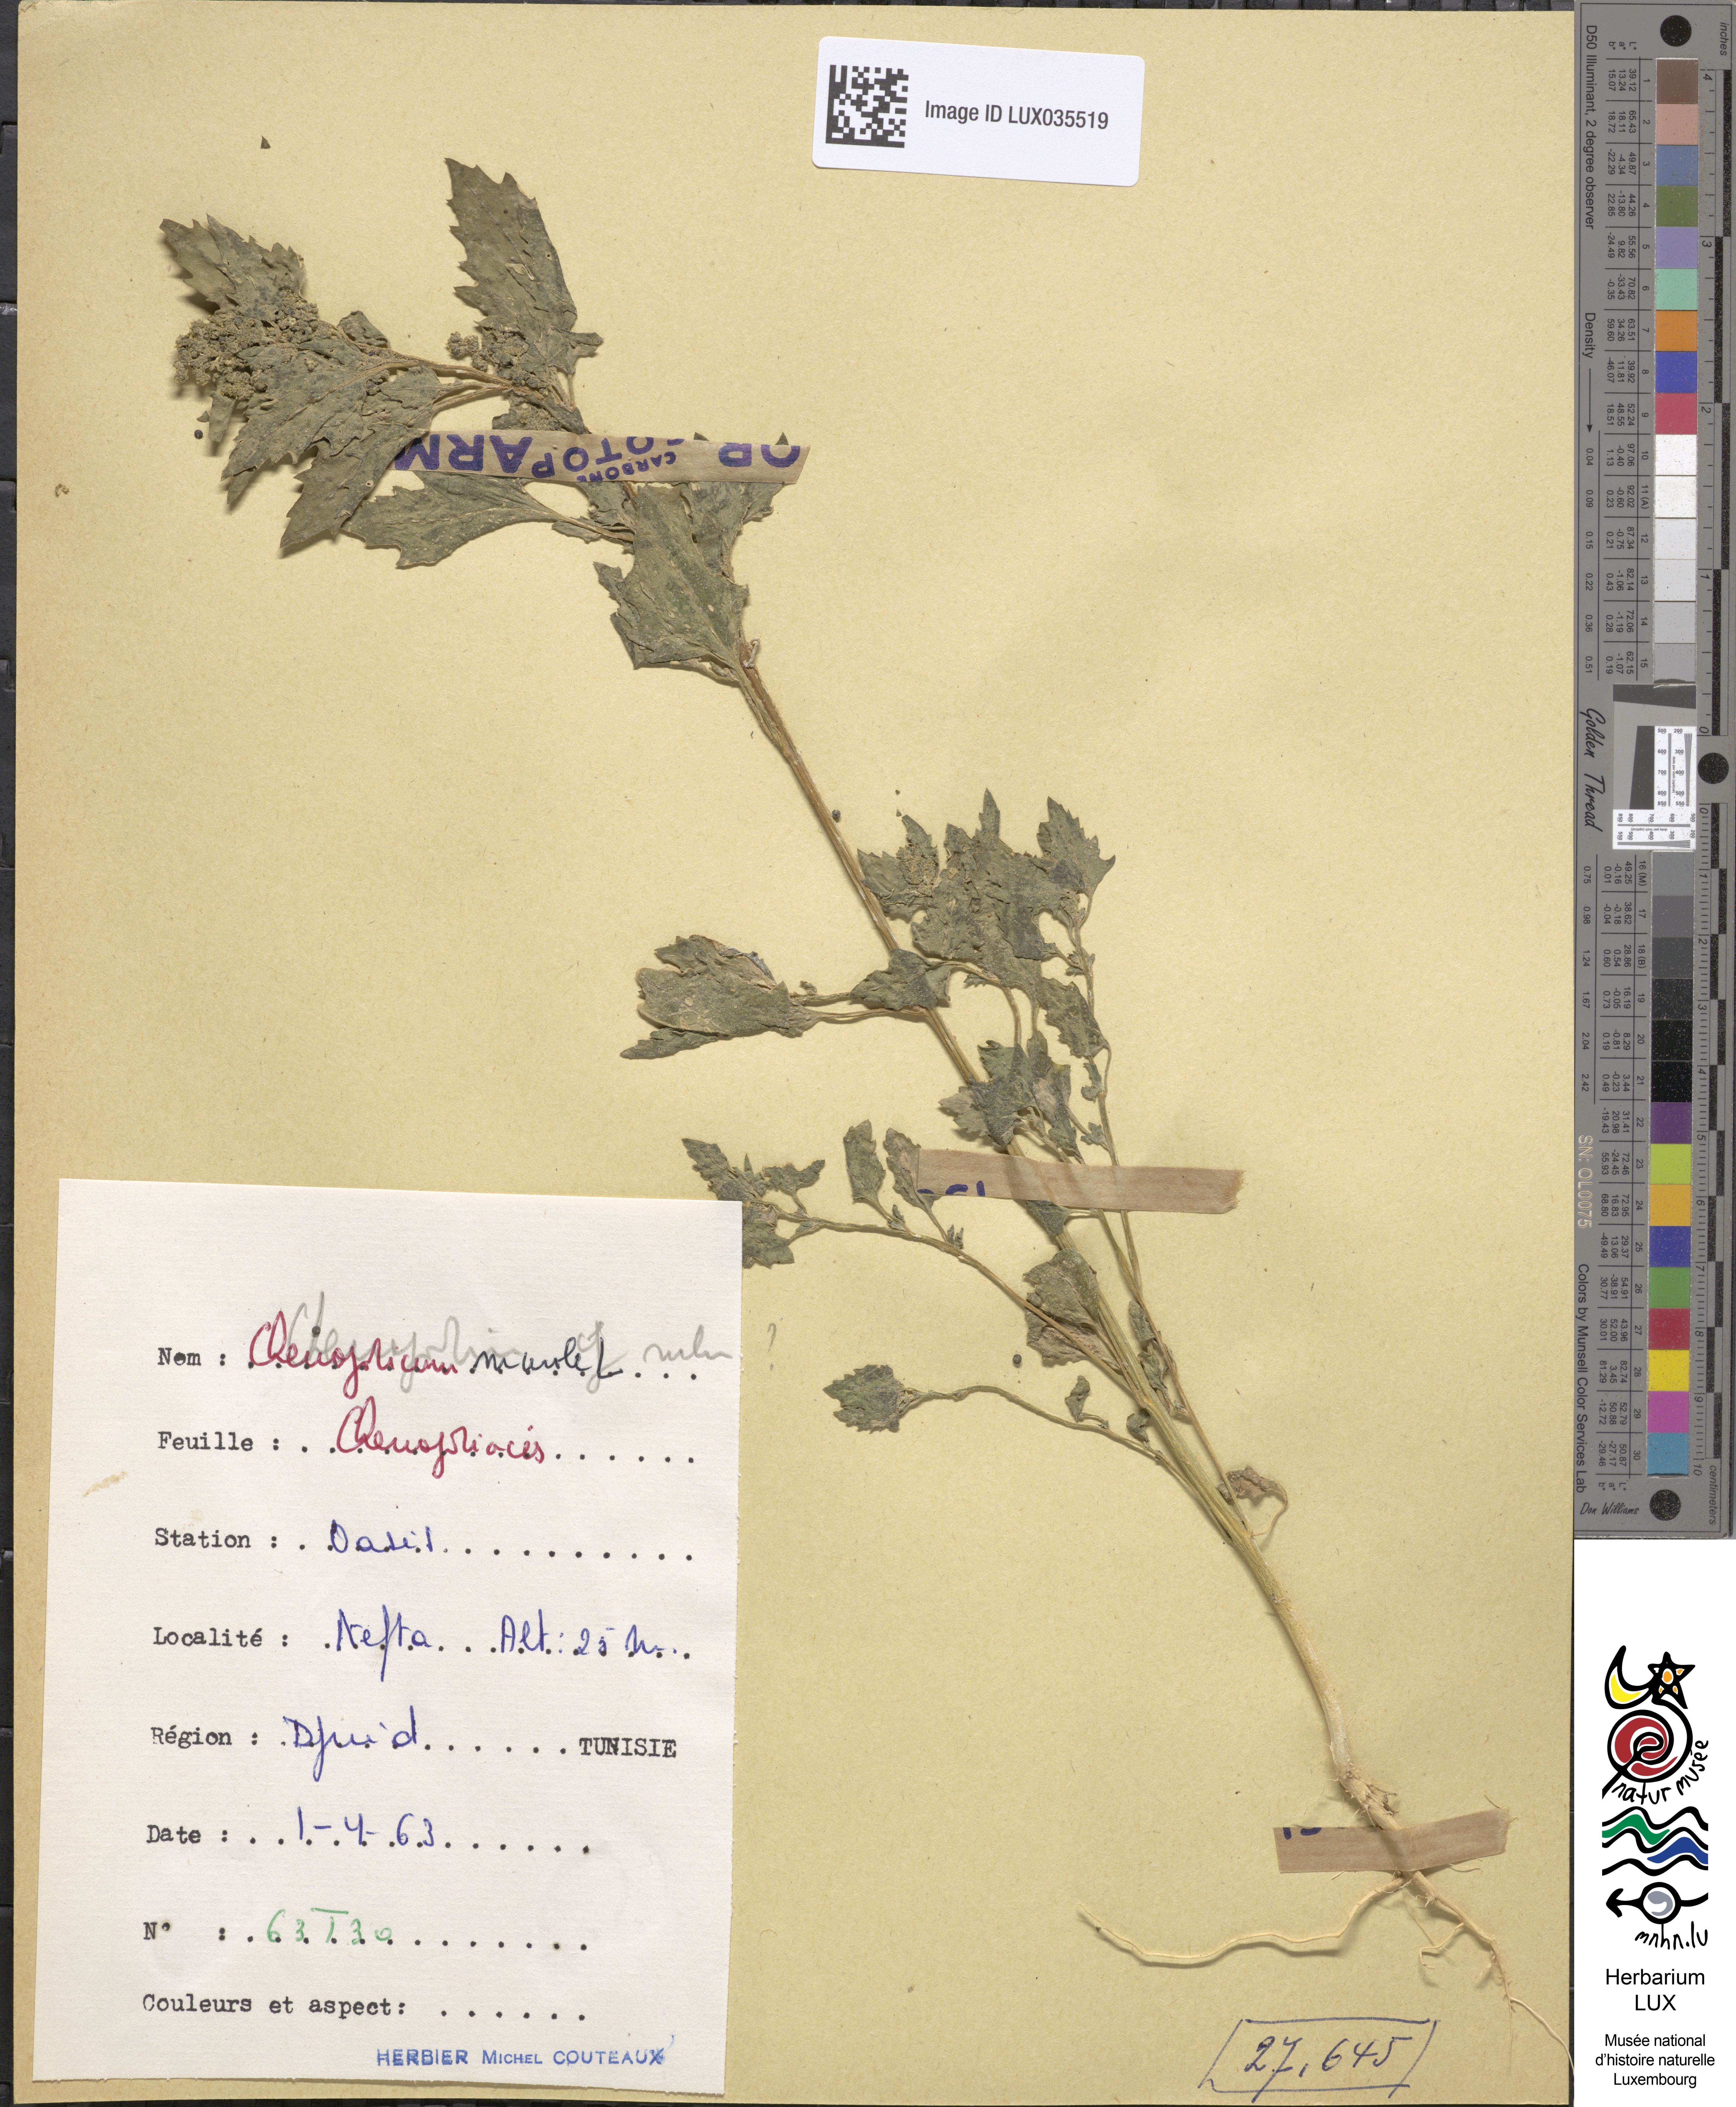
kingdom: Plantae
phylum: Tracheophyta
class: Magnoliopsida
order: Caryophyllales
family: Amaranthaceae
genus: Chenopodiastrum
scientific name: Chenopodiastrum murale
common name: Sowbane
